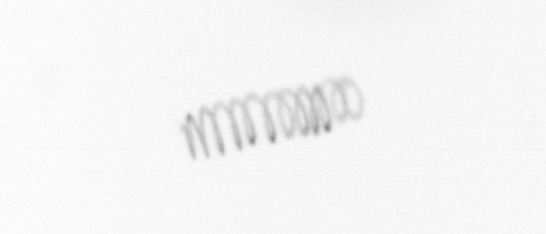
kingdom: Chromista
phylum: Ochrophyta
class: Bacillariophyceae
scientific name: Bacillariophyceae
